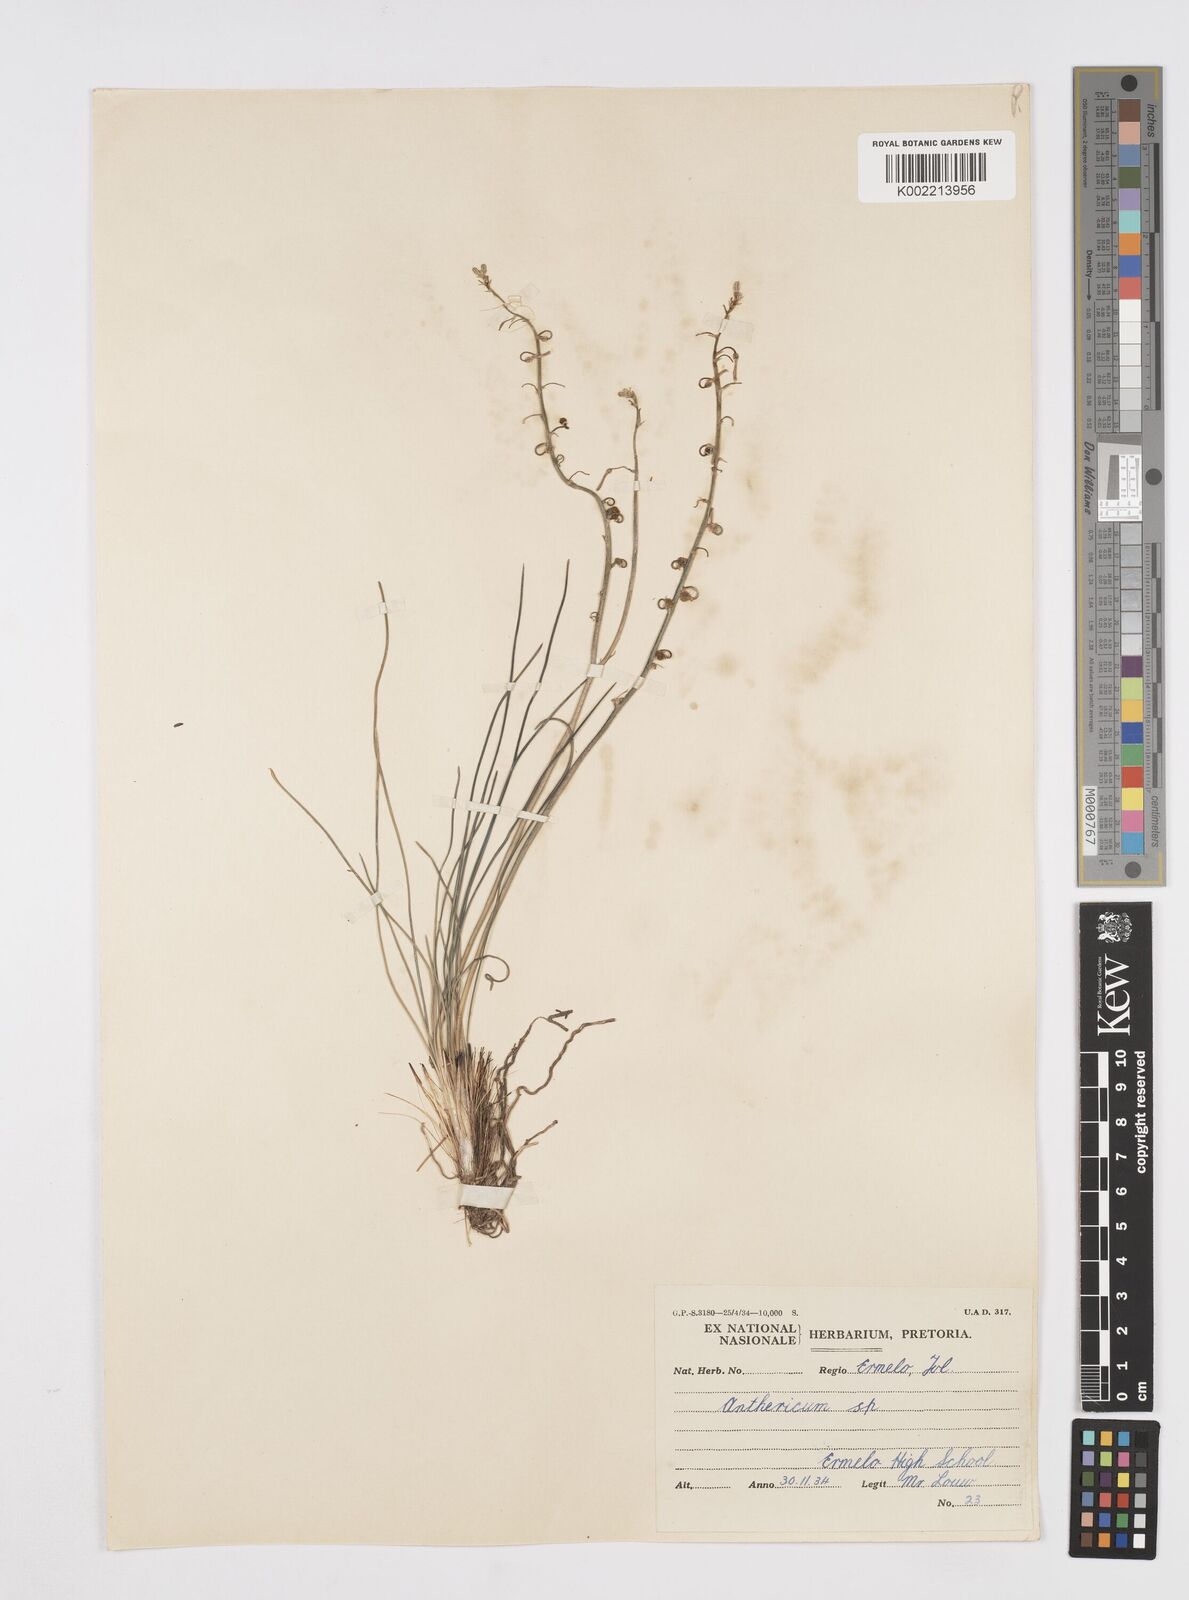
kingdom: Plantae
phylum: Tracheophyta
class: Liliopsida
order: Asparagales
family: Asphodelaceae
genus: Trachyandra
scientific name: Trachyandra asperata
